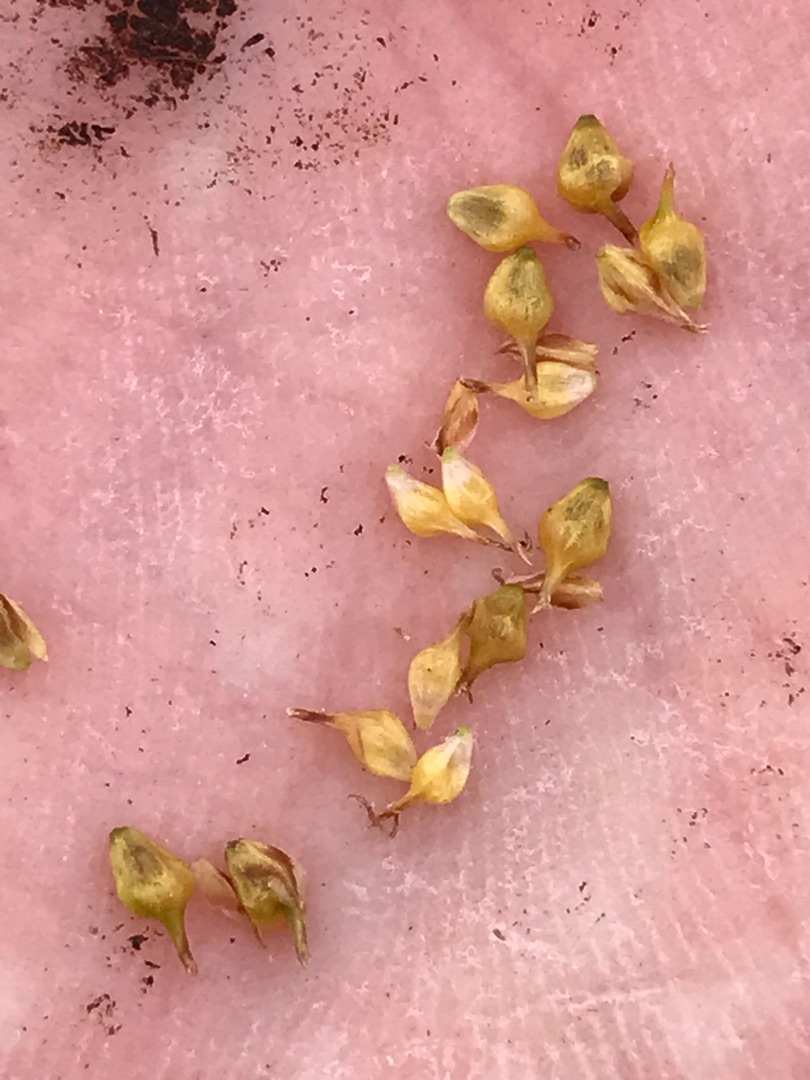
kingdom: Plantae
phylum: Tracheophyta
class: Liliopsida
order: Poales
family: Cyperaceae
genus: Carex
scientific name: Carex lepidocarpa
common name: Krognæb-star
